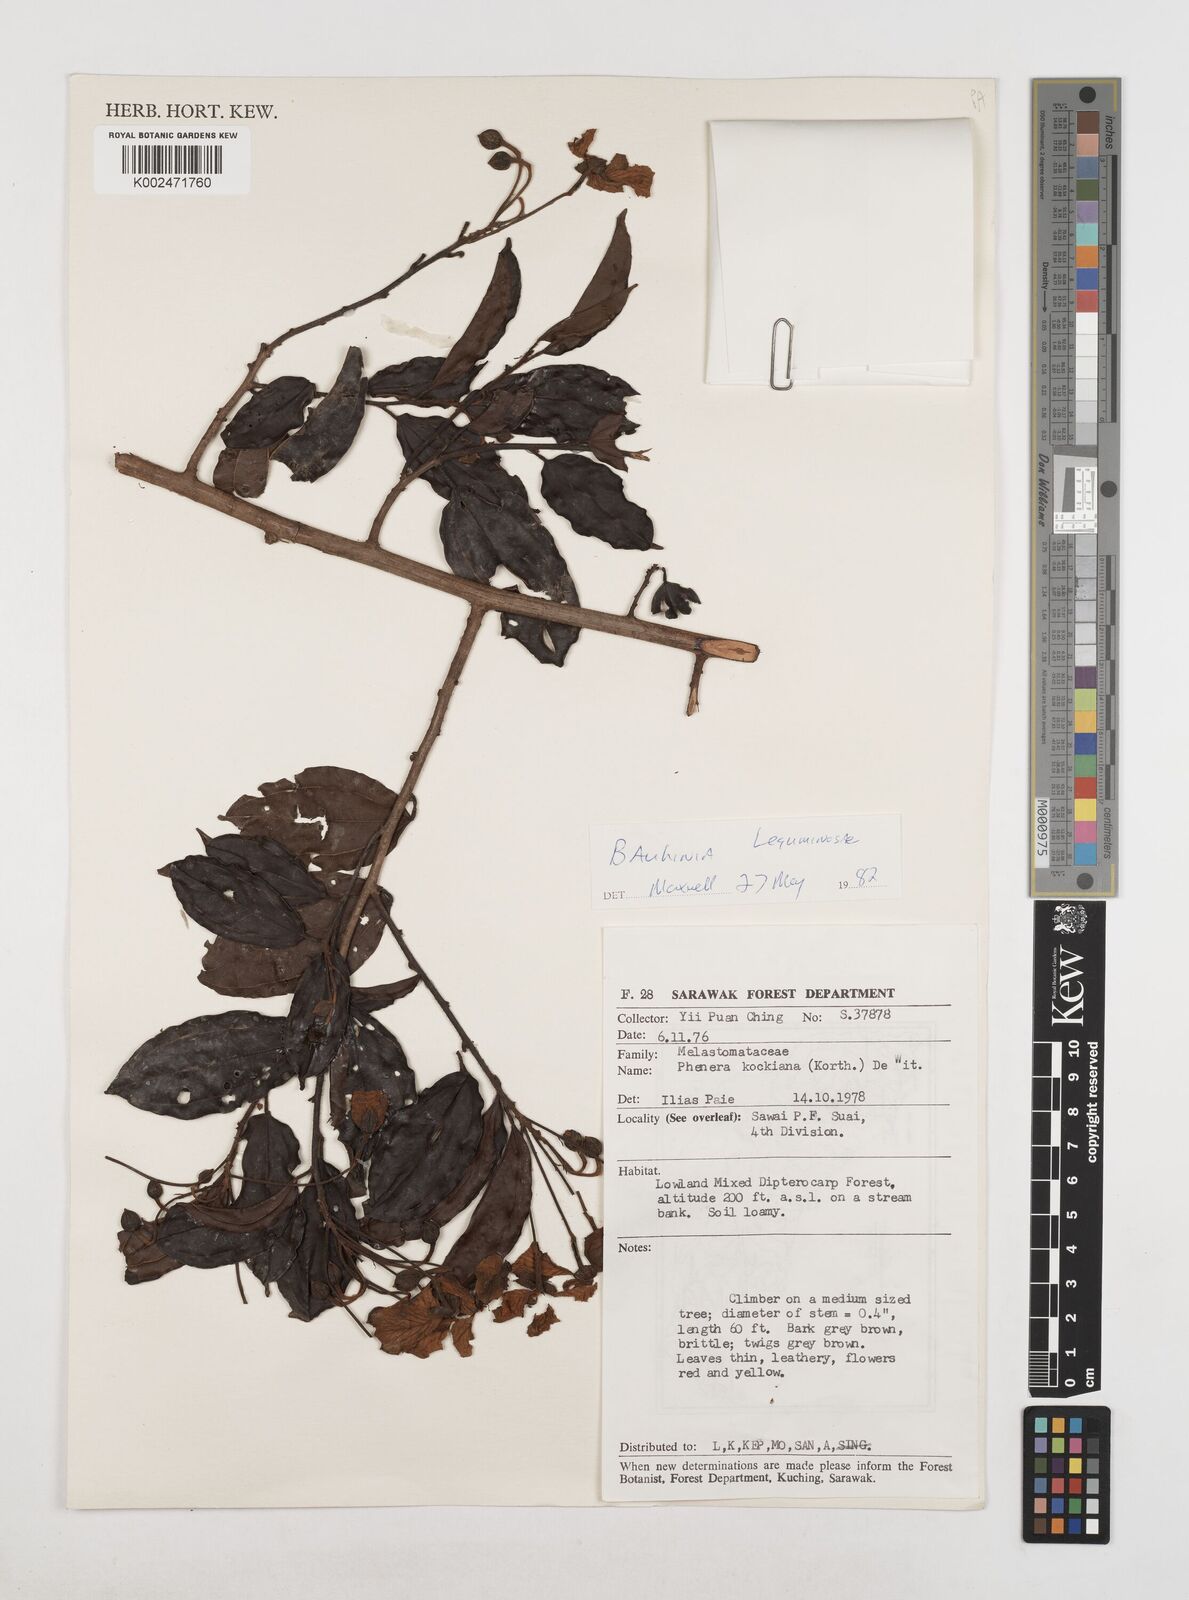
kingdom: Plantae
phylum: Tracheophyta
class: Magnoliopsida
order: Fabales
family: Fabaceae
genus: Phanera
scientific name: Phanera kockiana
